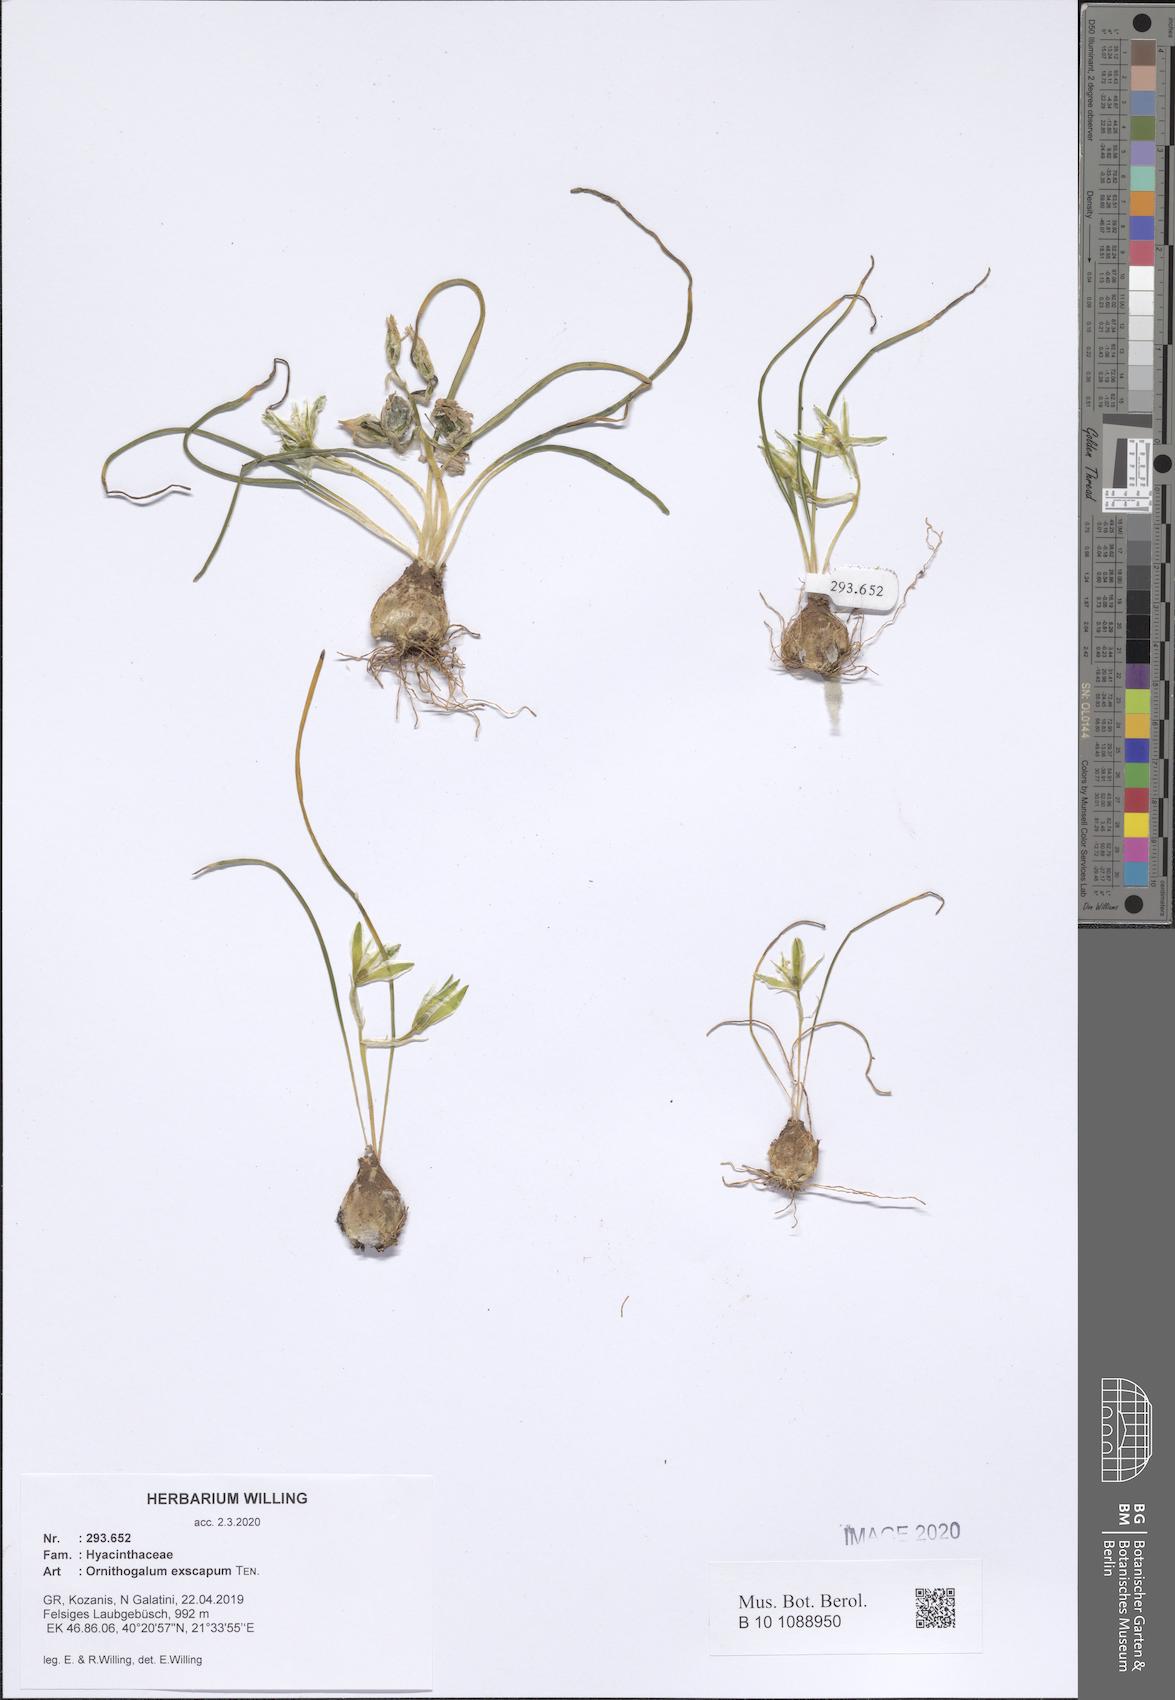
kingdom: Plantae
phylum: Tracheophyta
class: Liliopsida
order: Asparagales
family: Asparagaceae
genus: Ornithogalum
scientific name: Ornithogalum exscapum
